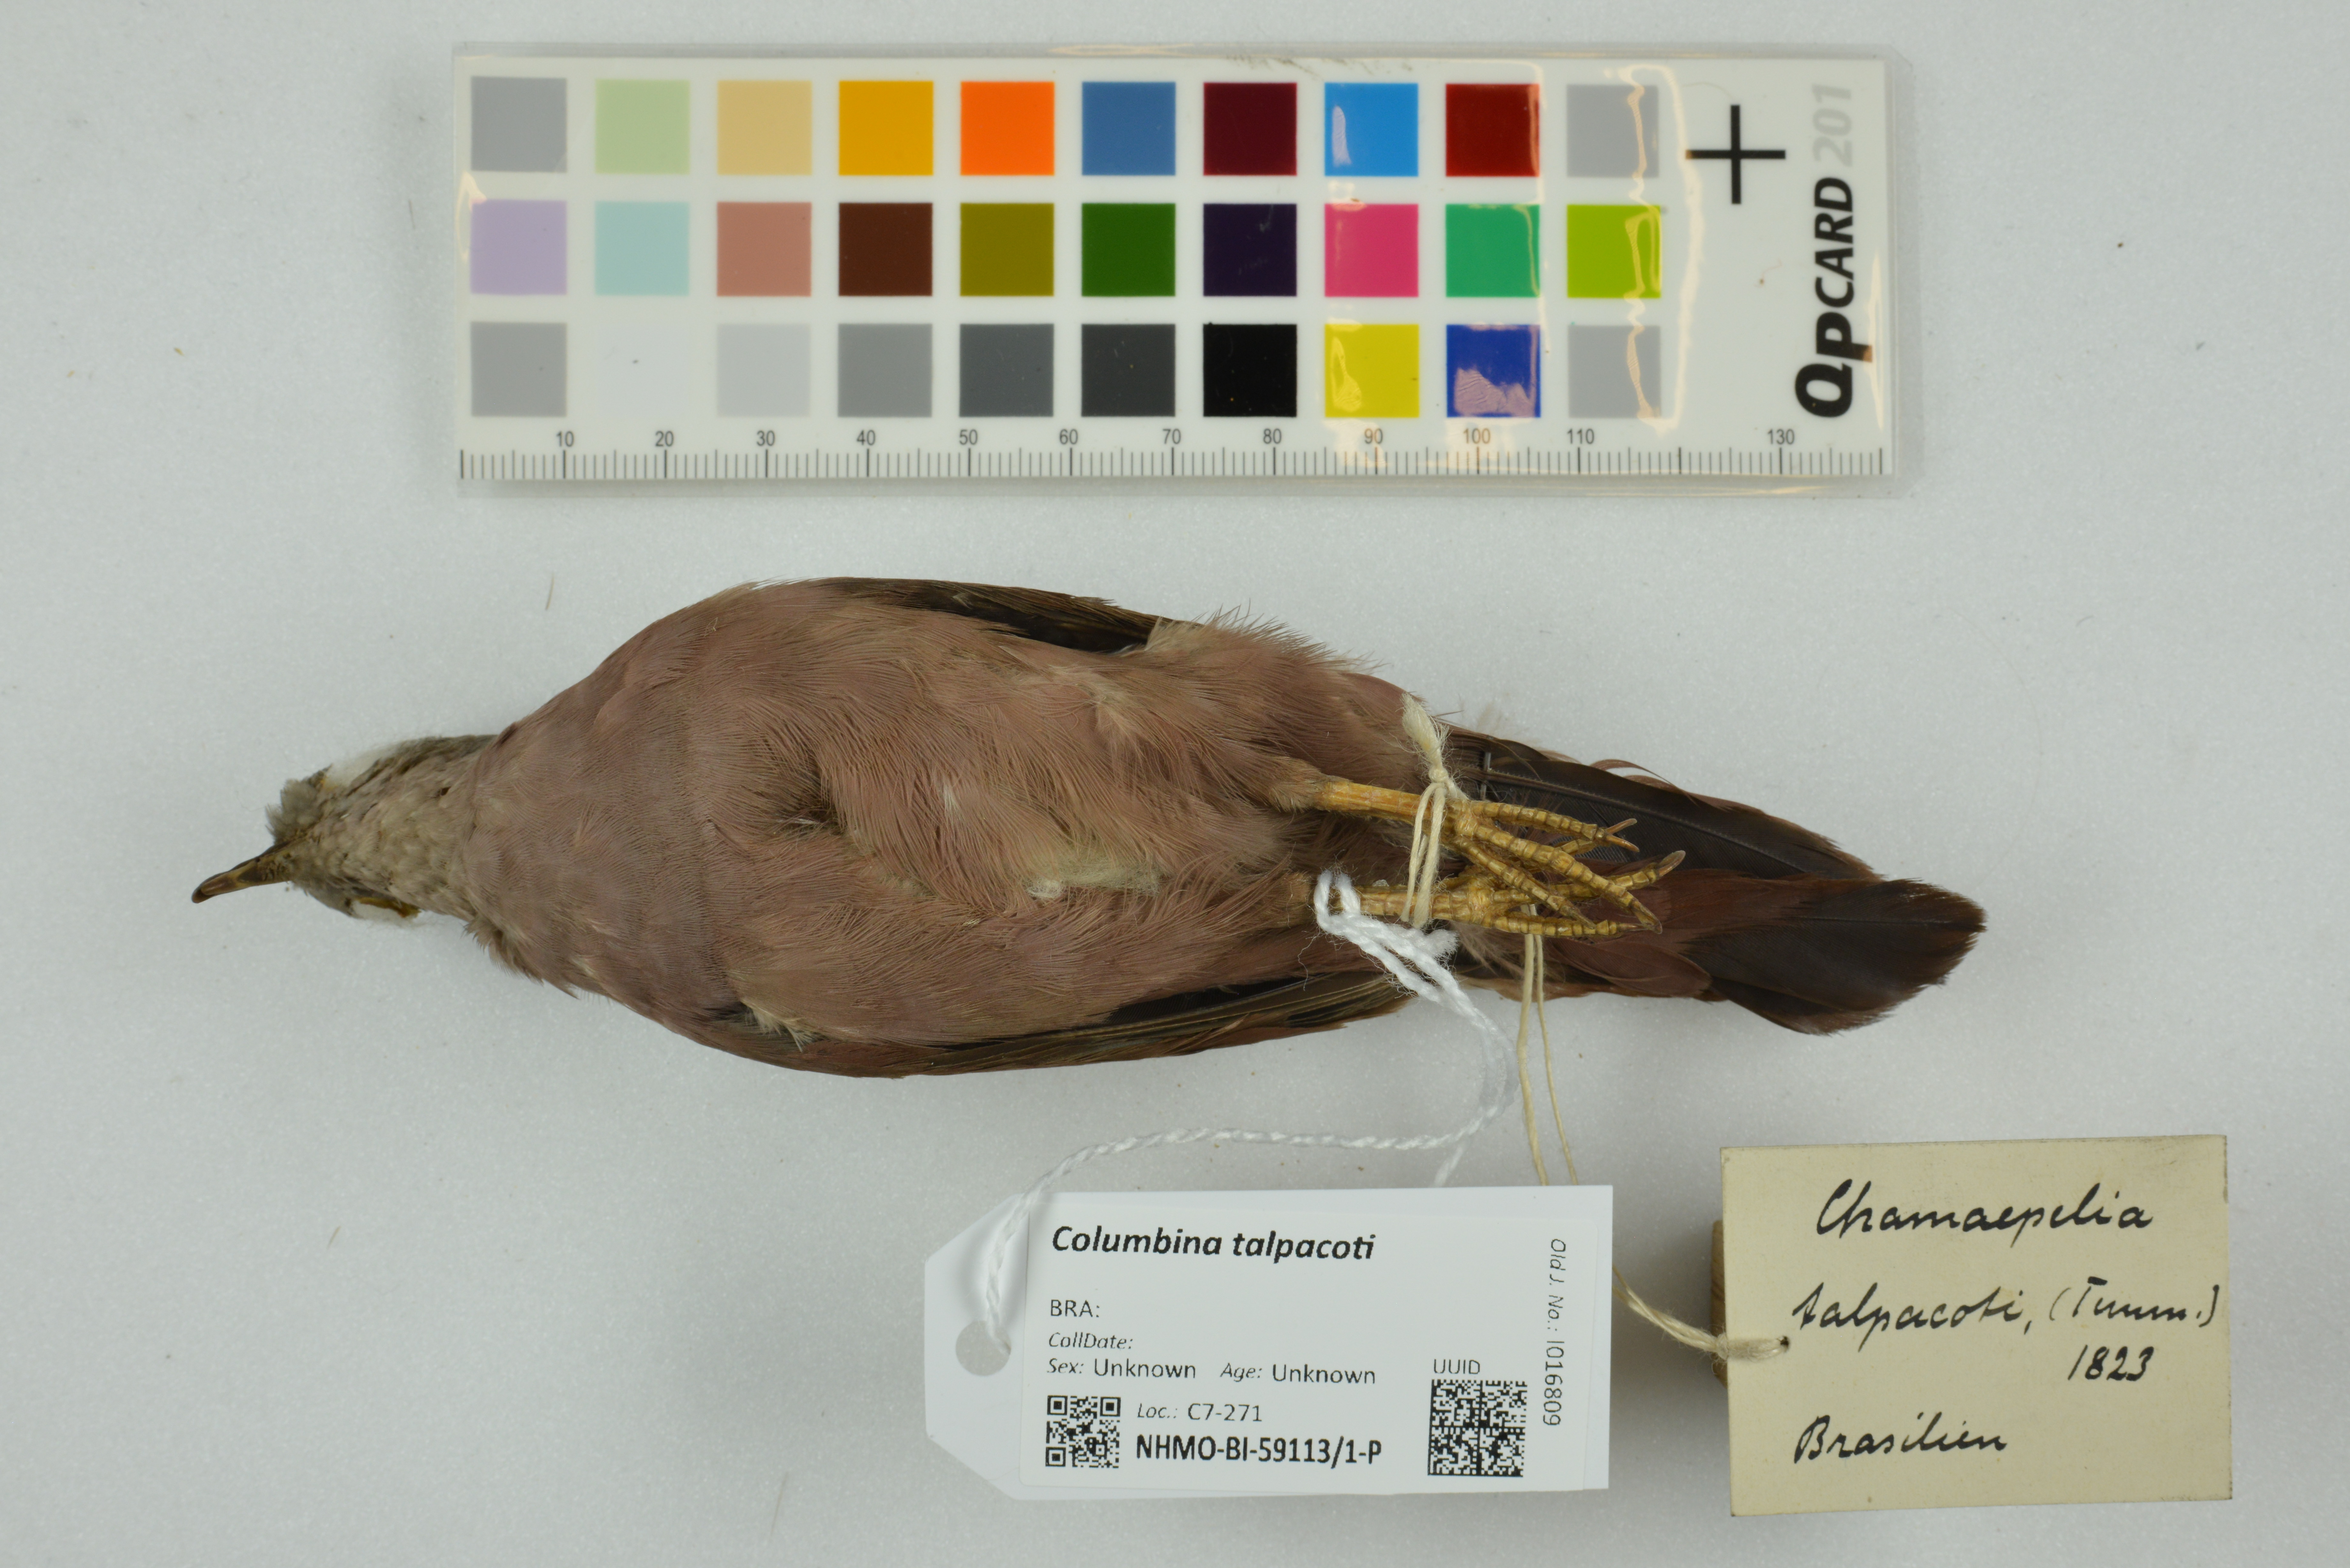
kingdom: Animalia
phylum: Chordata
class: Aves
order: Columbiformes
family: Columbidae
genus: Columbina
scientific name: Columbina talpacoti
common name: Ruddy ground dove
